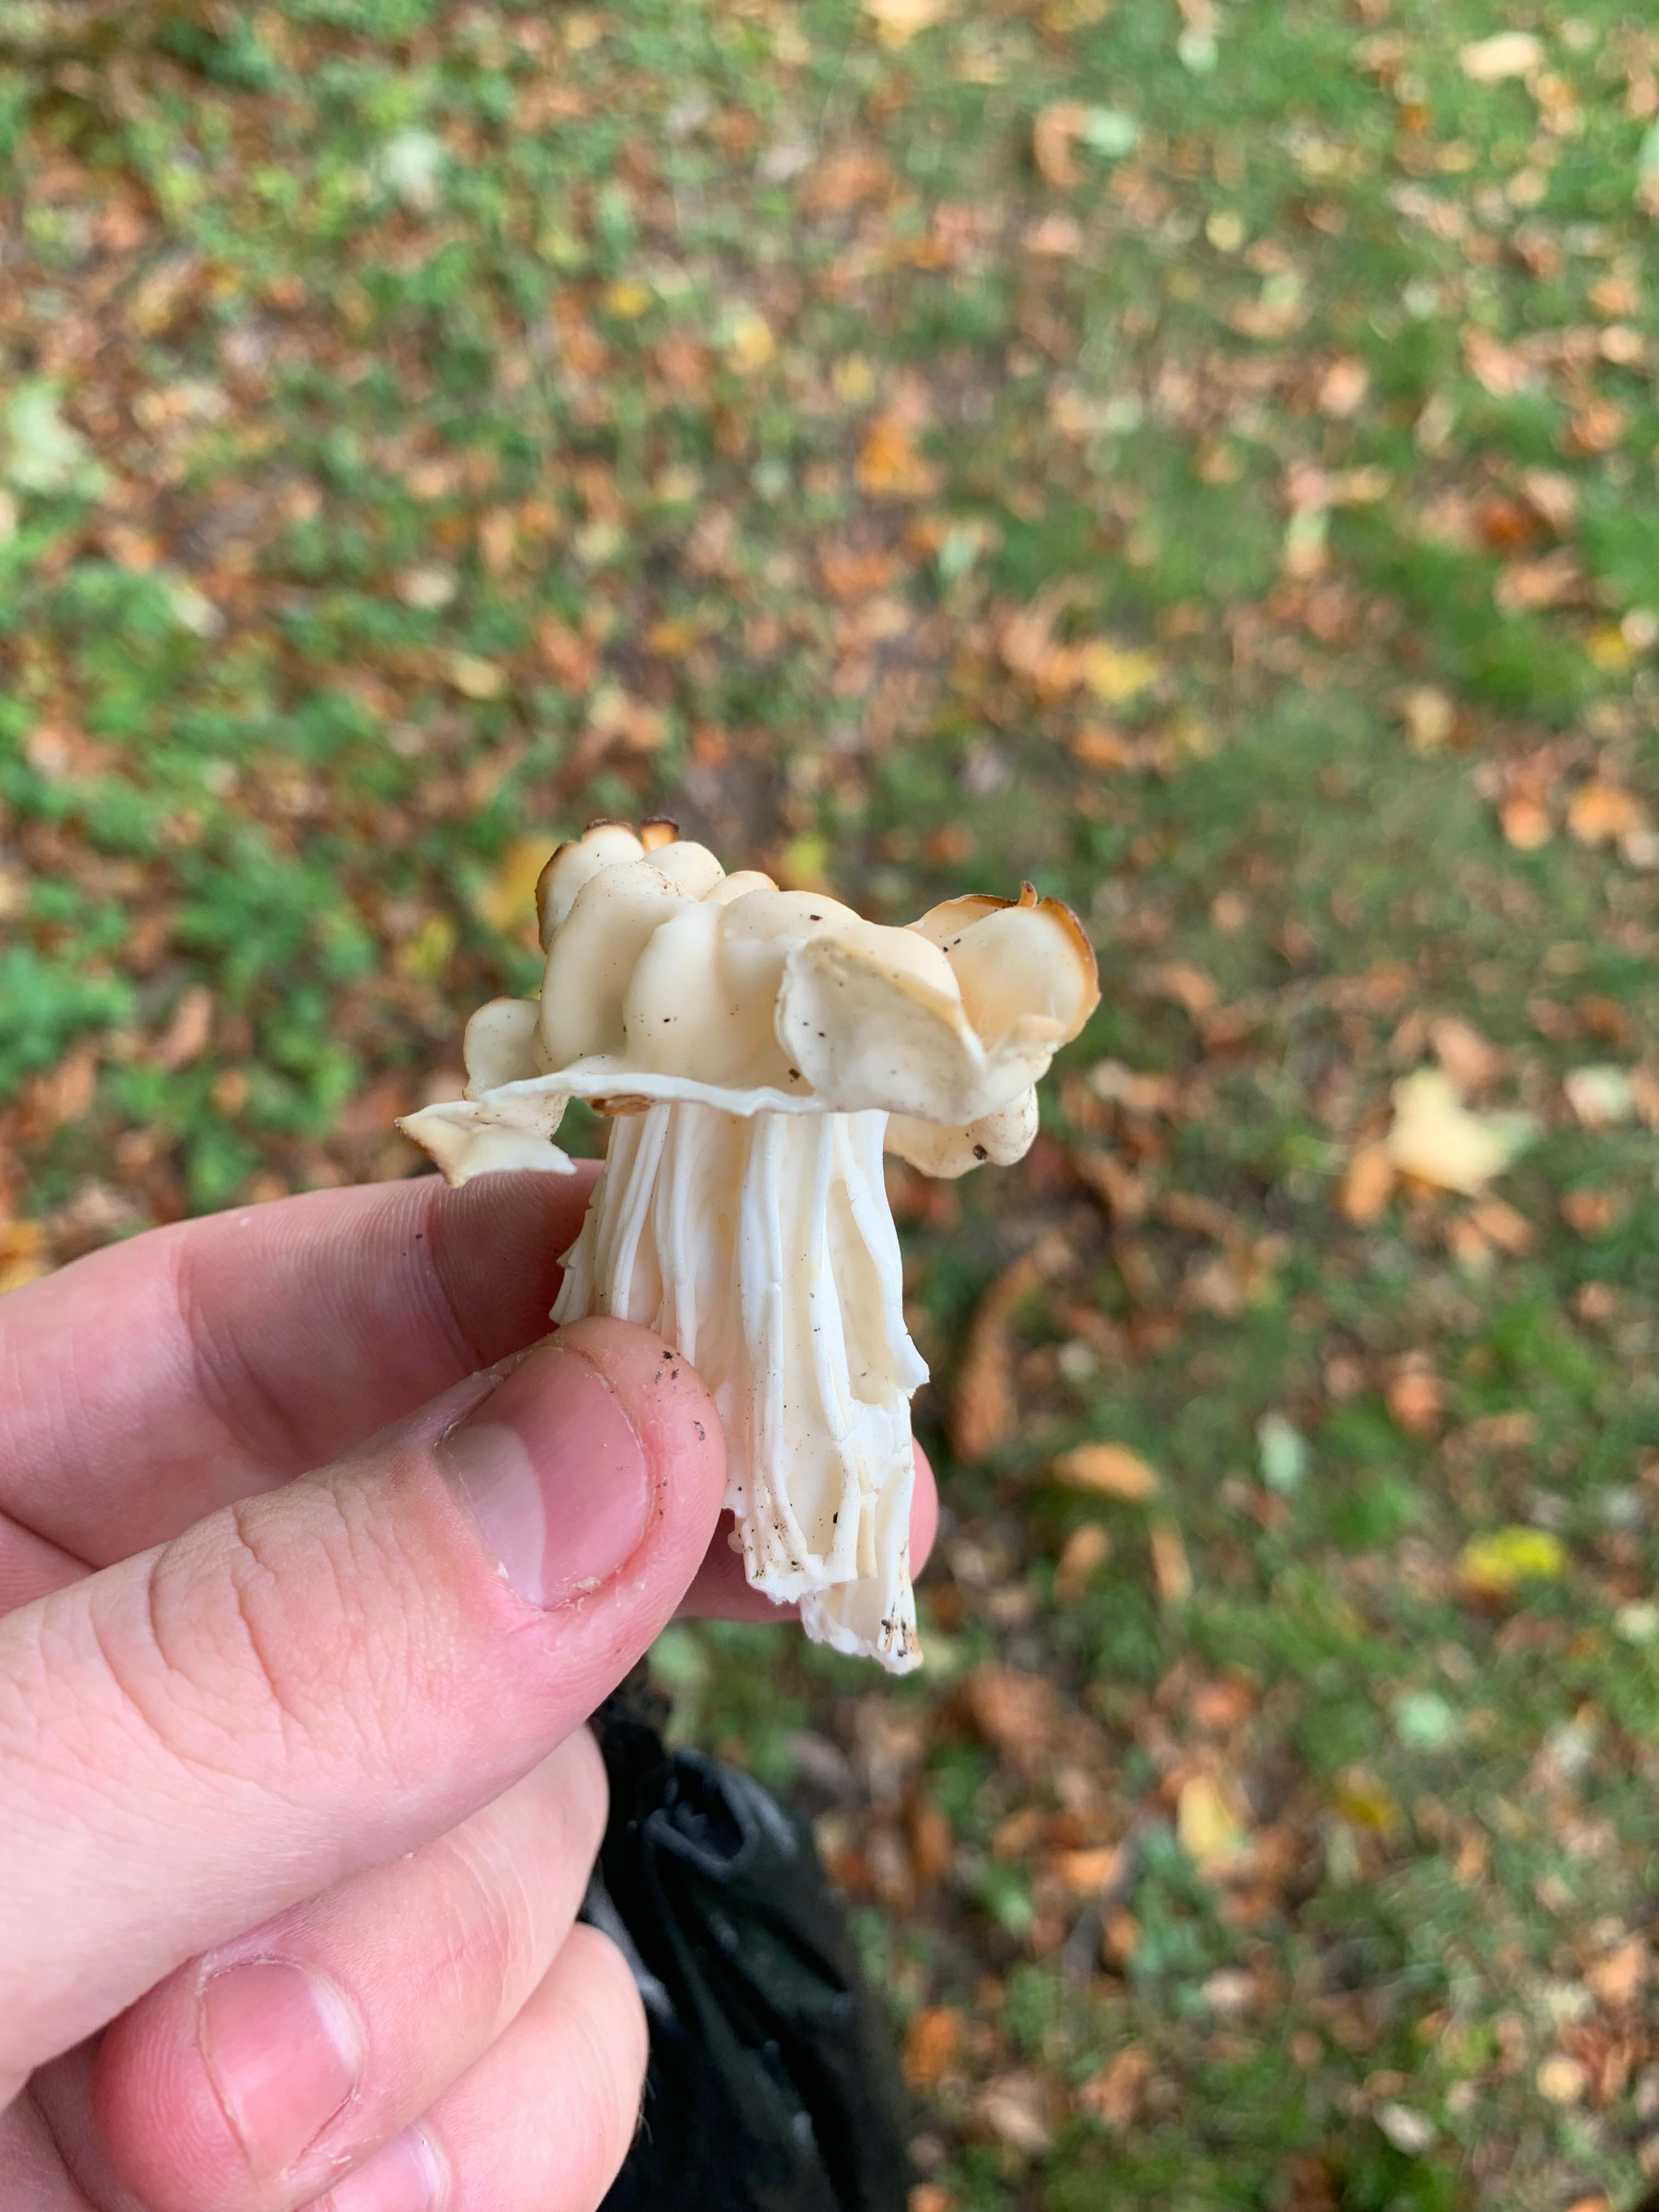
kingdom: Fungi
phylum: Ascomycota
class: Pezizomycetes
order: Pezizales
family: Helvellaceae
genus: Helvella
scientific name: Helvella crispa
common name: kruset foldhat
